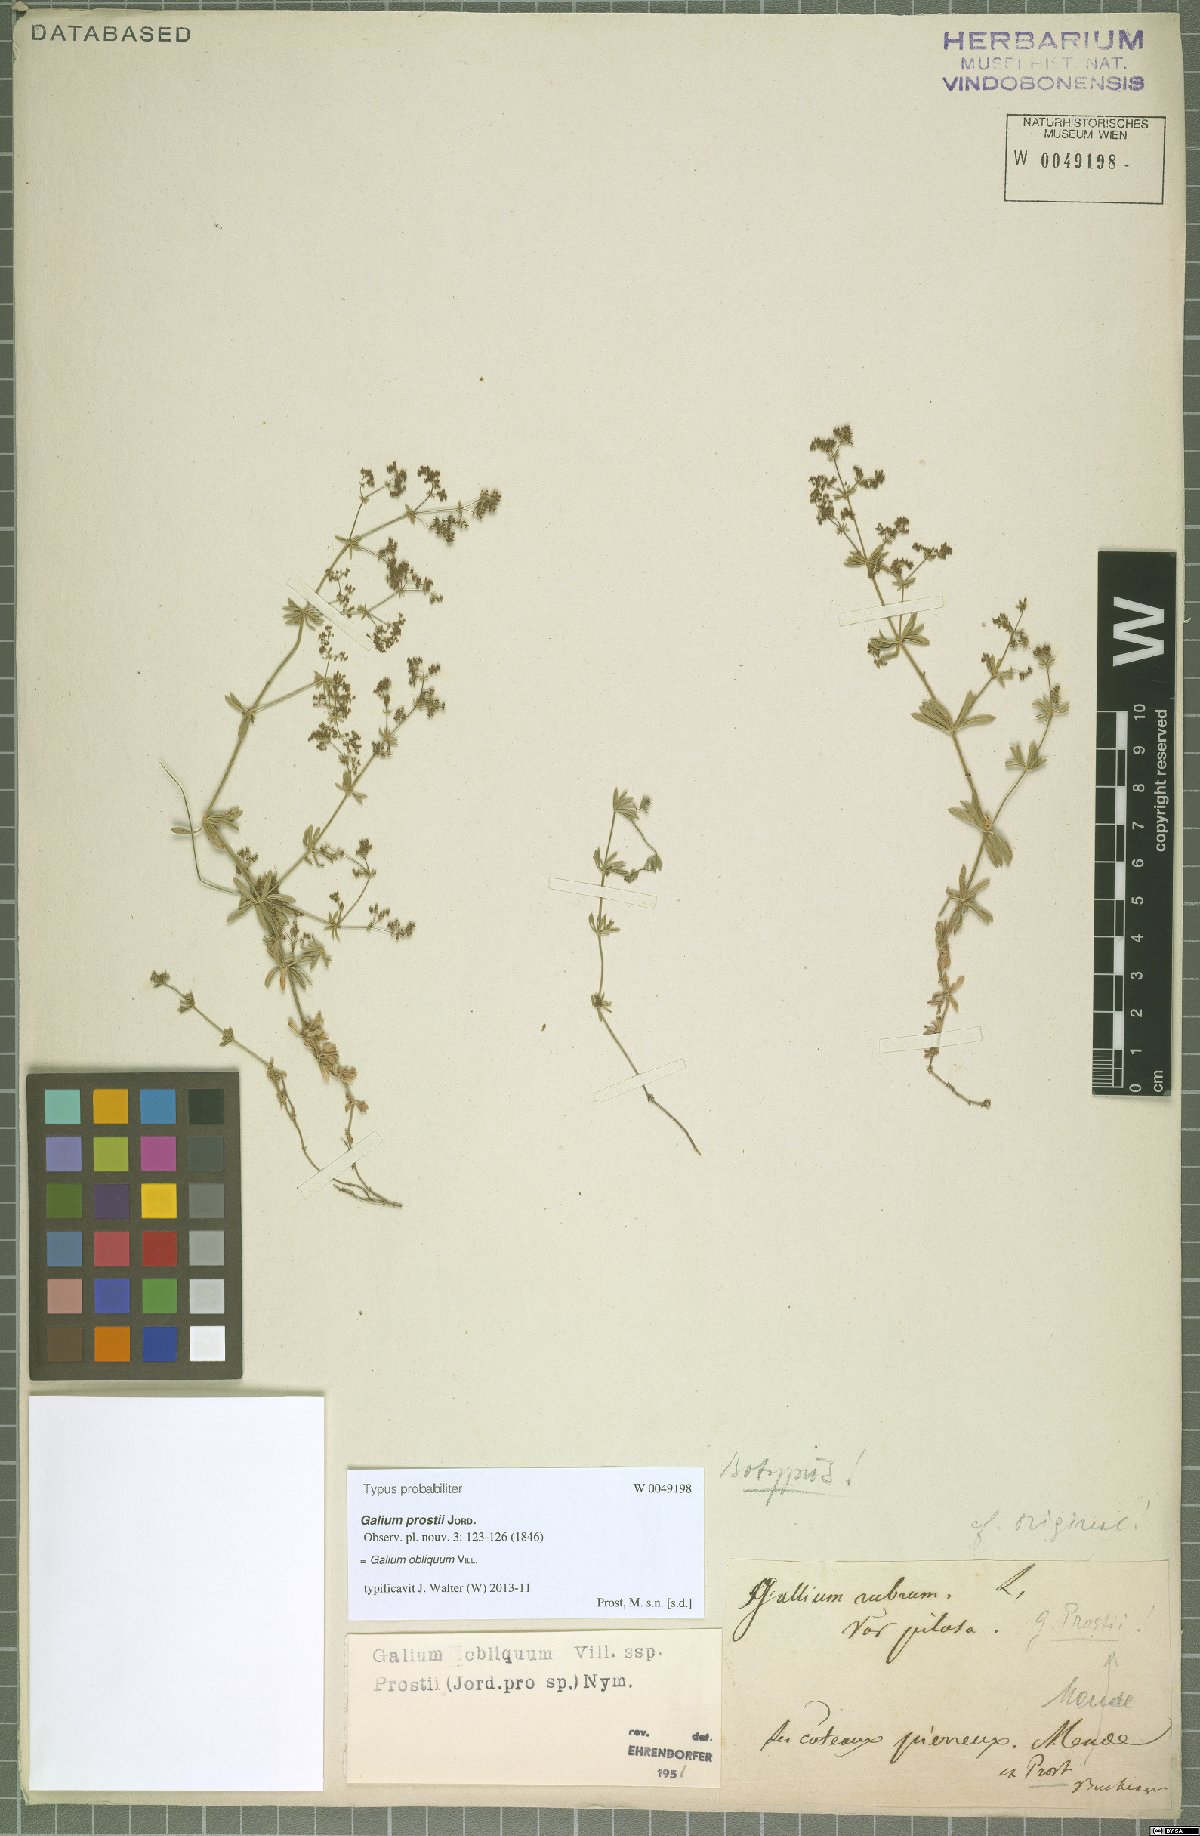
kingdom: Plantae
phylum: Tracheophyta
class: Magnoliopsida
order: Gentianales
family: Rubiaceae
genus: Galium
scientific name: Galium obliquum
